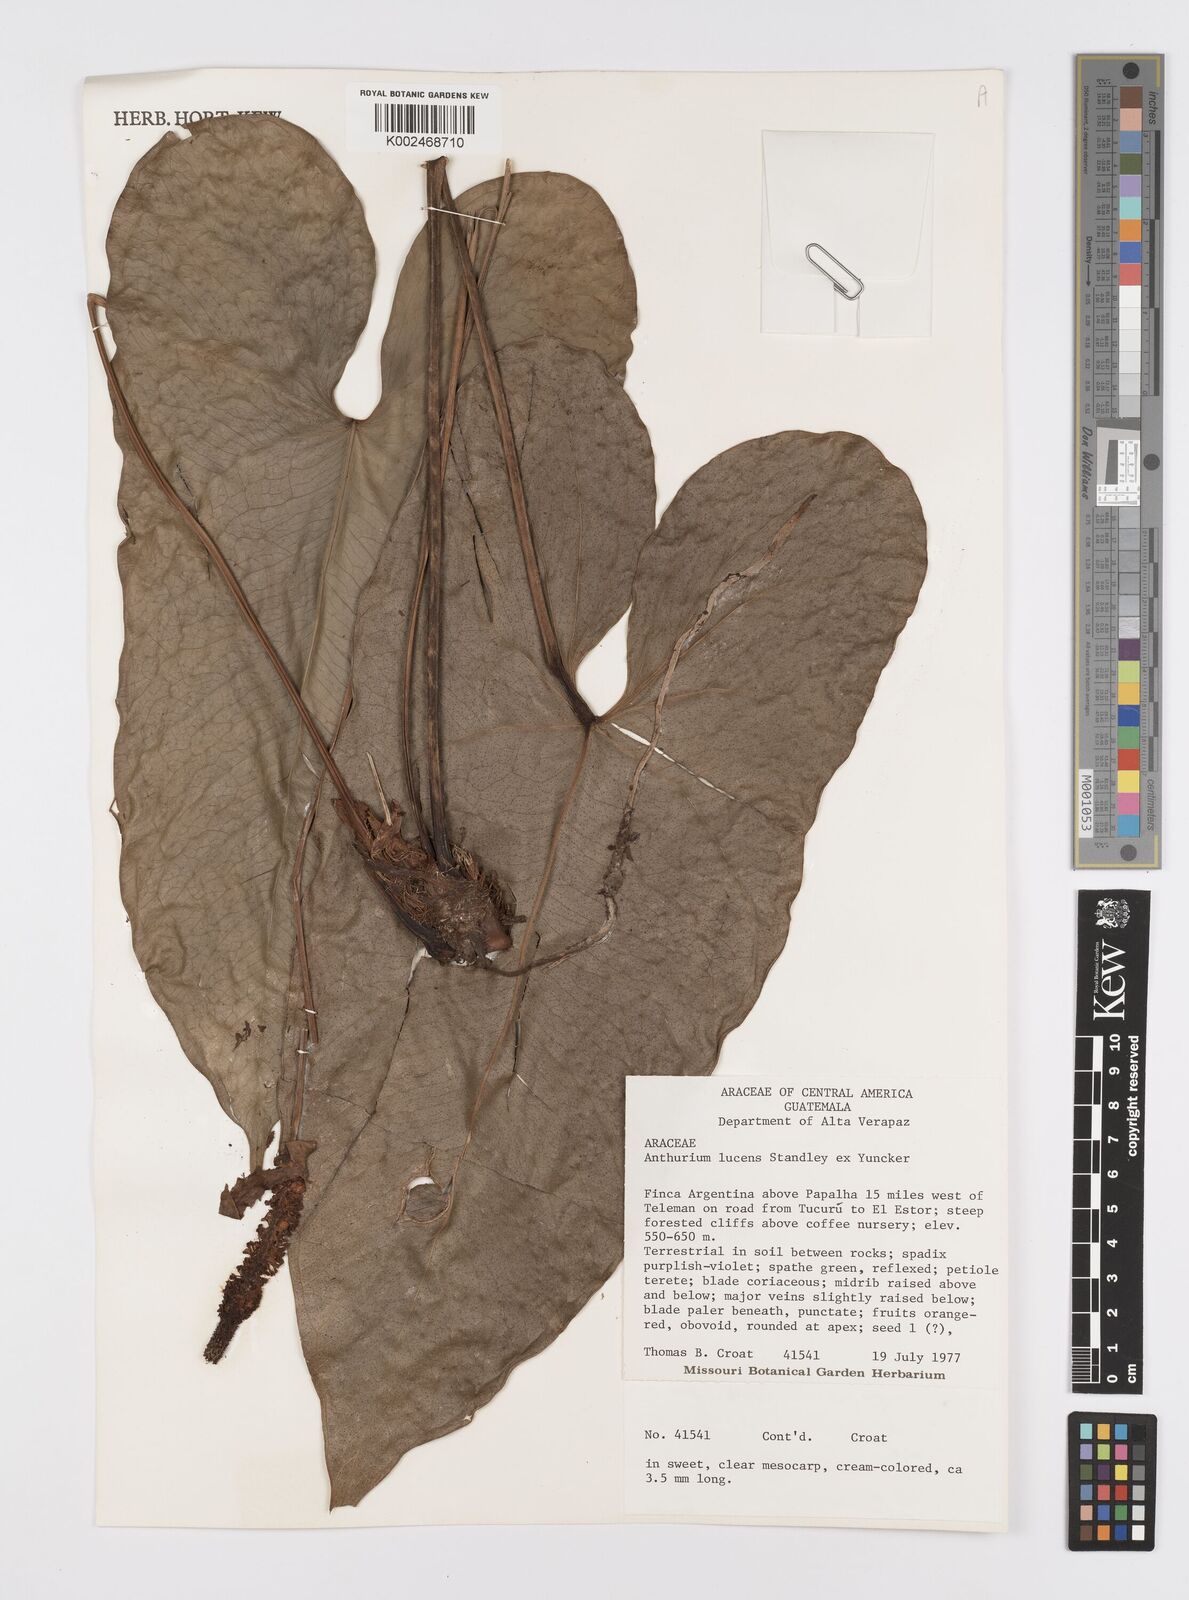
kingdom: Plantae
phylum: Tracheophyta
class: Liliopsida
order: Alismatales
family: Araceae
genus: Anthurium
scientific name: Anthurium lucens
